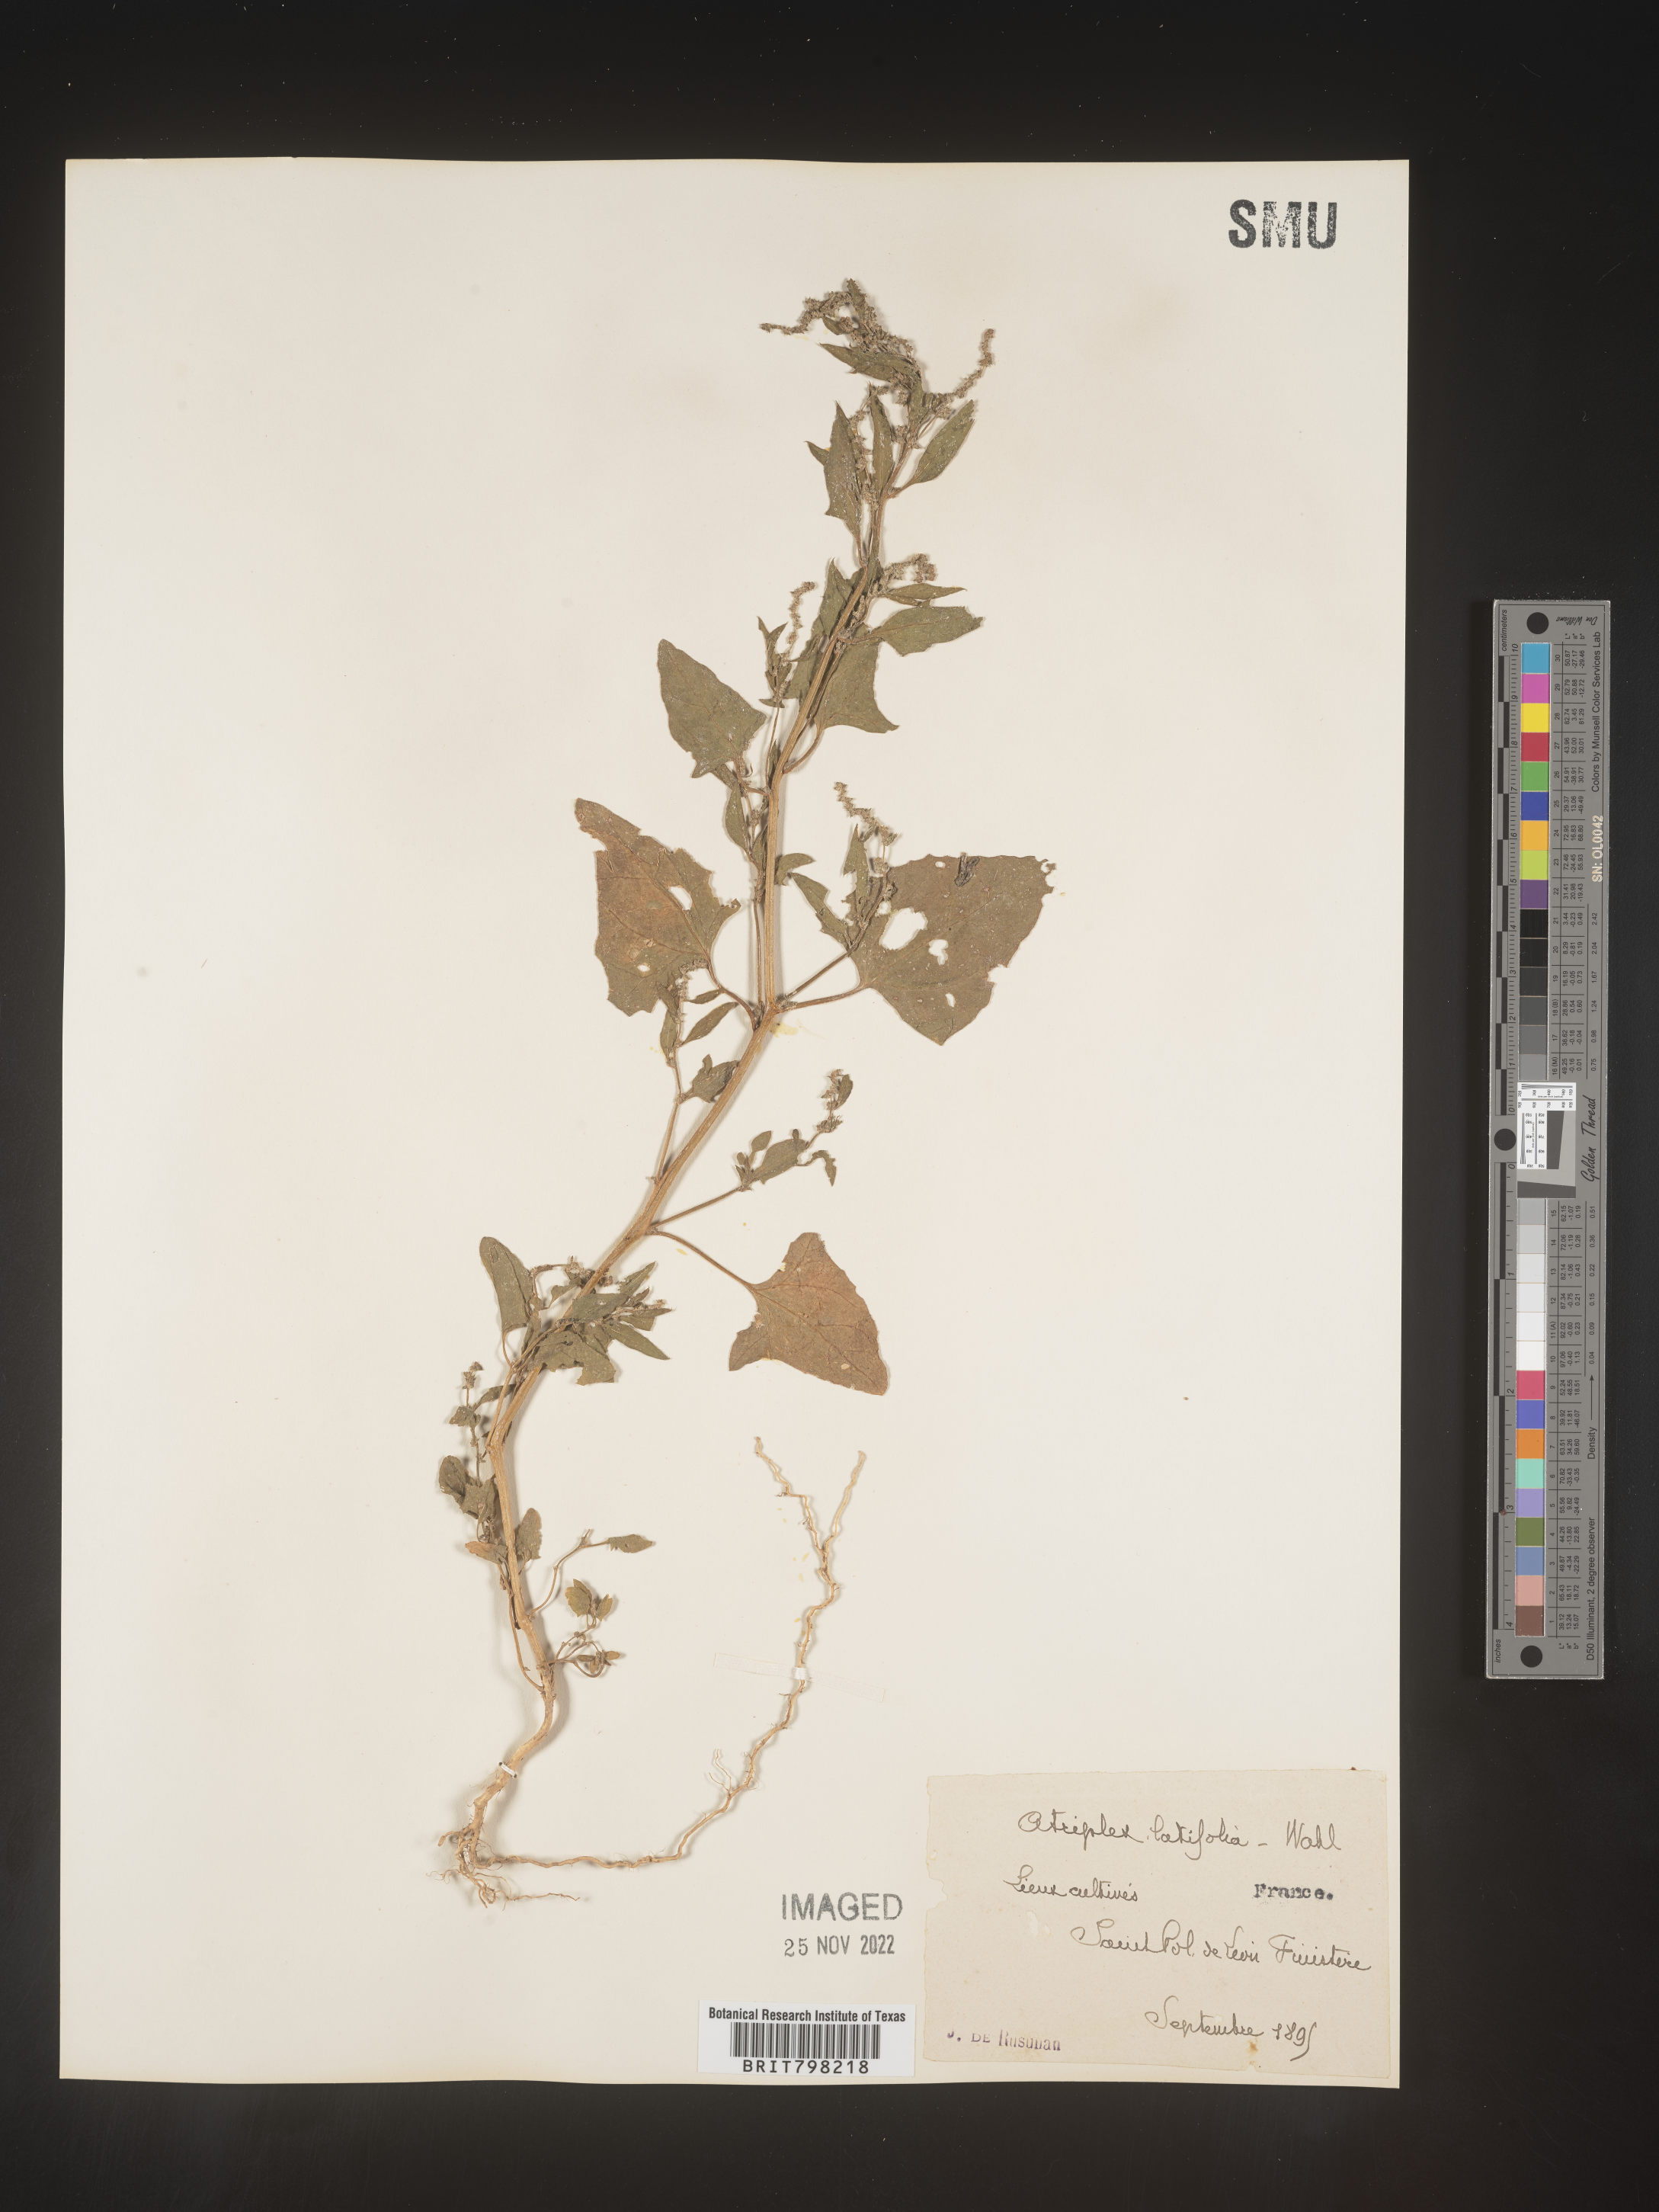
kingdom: Plantae
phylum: Tracheophyta
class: Magnoliopsida
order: Caryophyllales
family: Amaranthaceae
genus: Atriplex
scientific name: Atriplex
